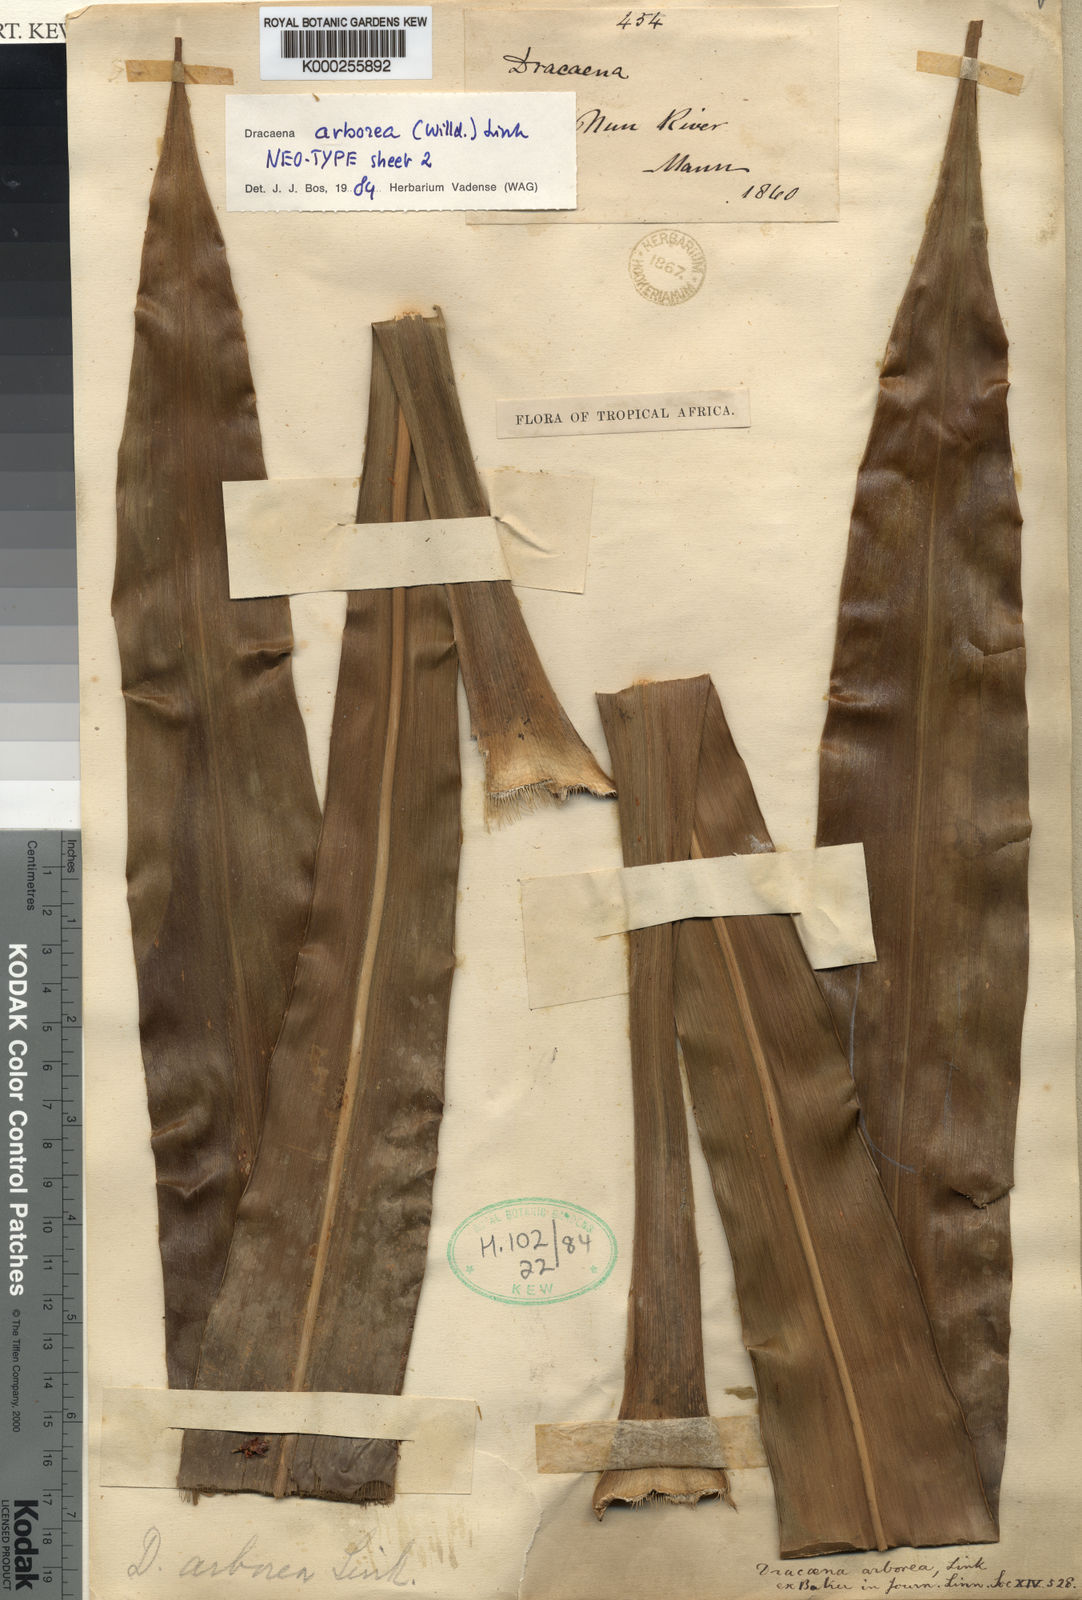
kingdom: Plantae
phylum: Tracheophyta
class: Liliopsida
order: Asparagales
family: Asparagaceae
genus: Dracaena
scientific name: Dracaena arborea
